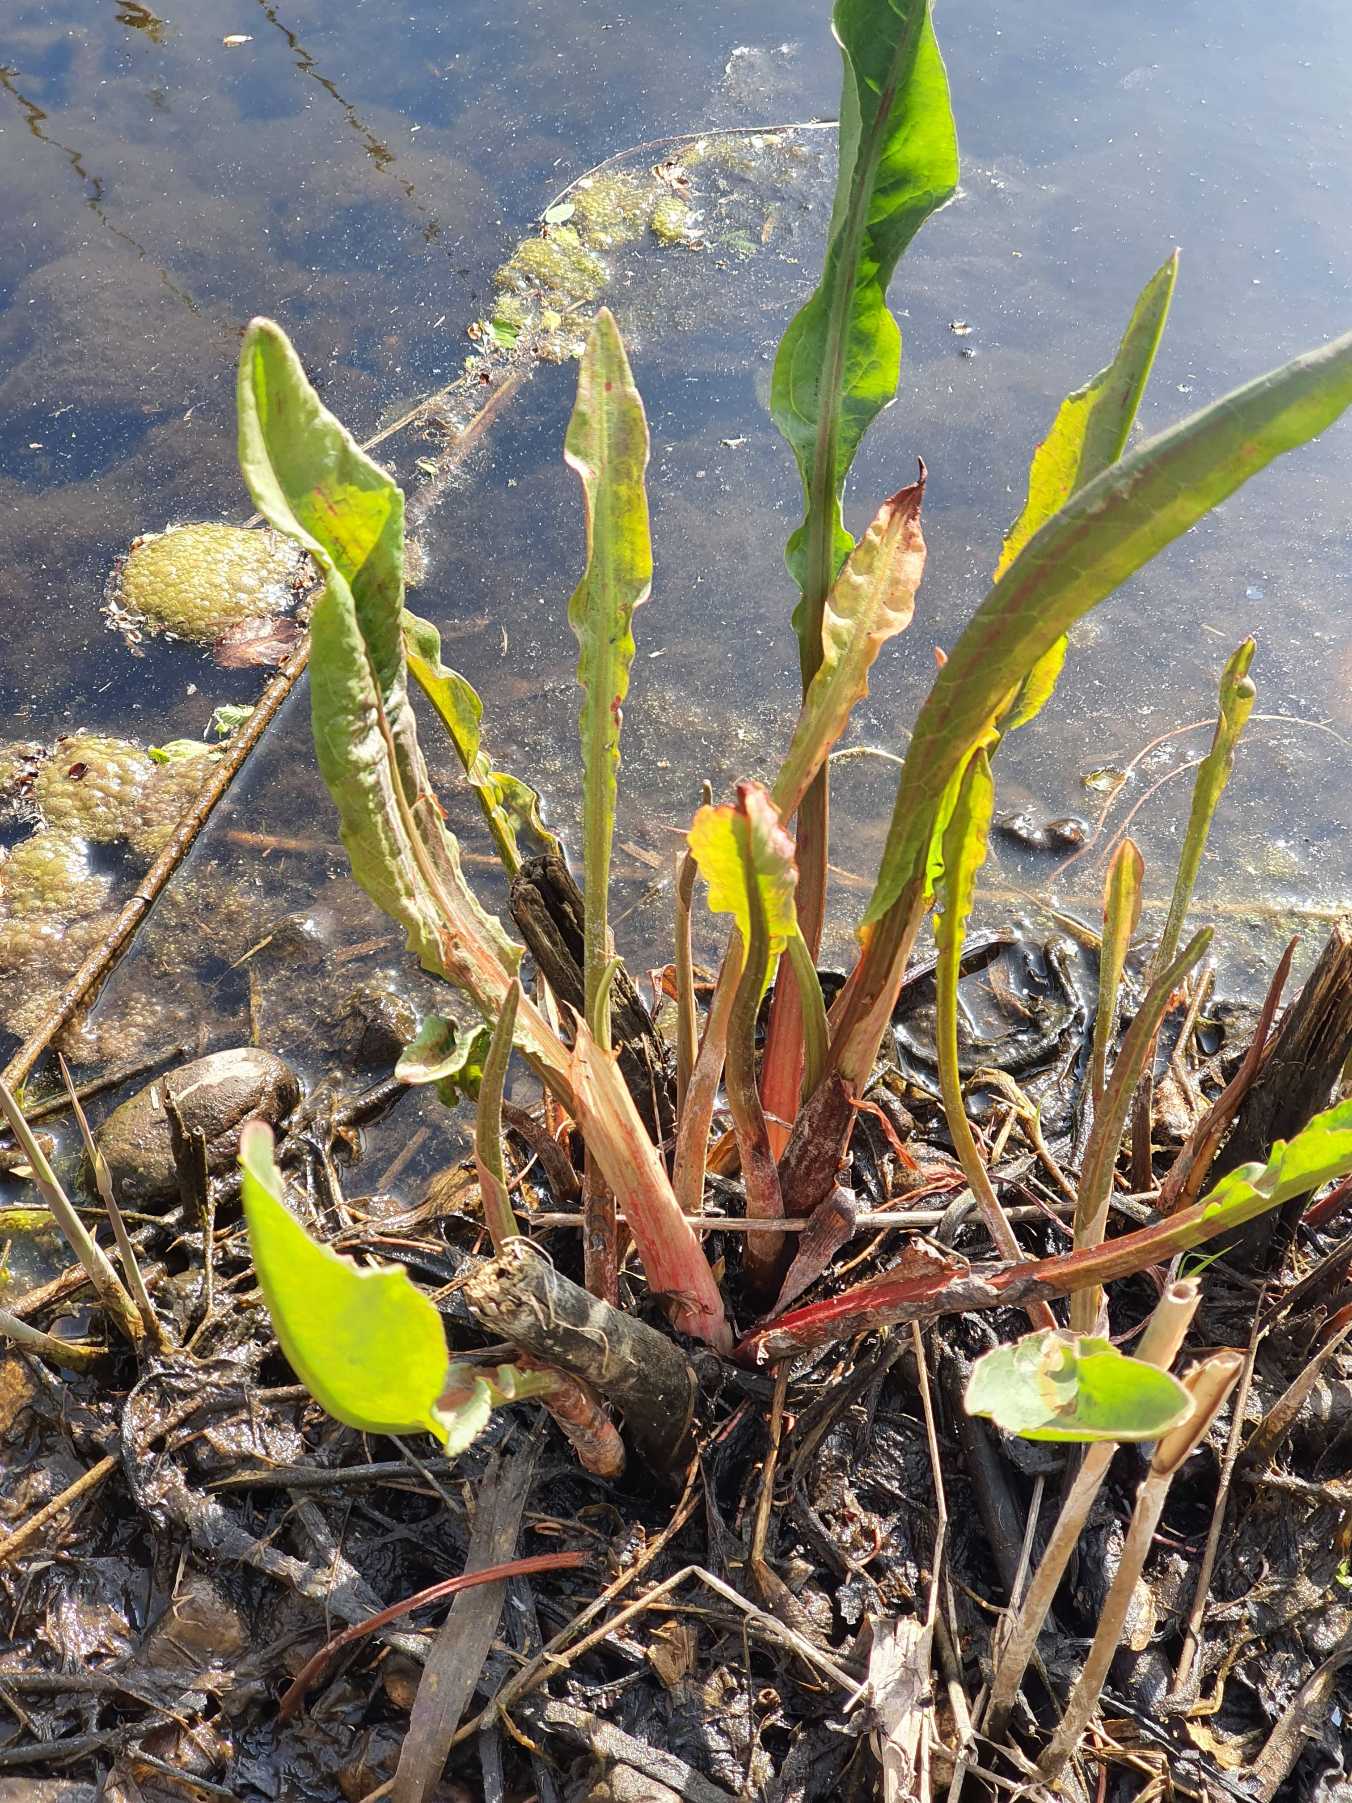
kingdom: Plantae
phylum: Tracheophyta
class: Magnoliopsida
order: Caryophyllales
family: Polygonaceae
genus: Rumex
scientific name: Rumex hydrolapathum
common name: Vand-skræppe
